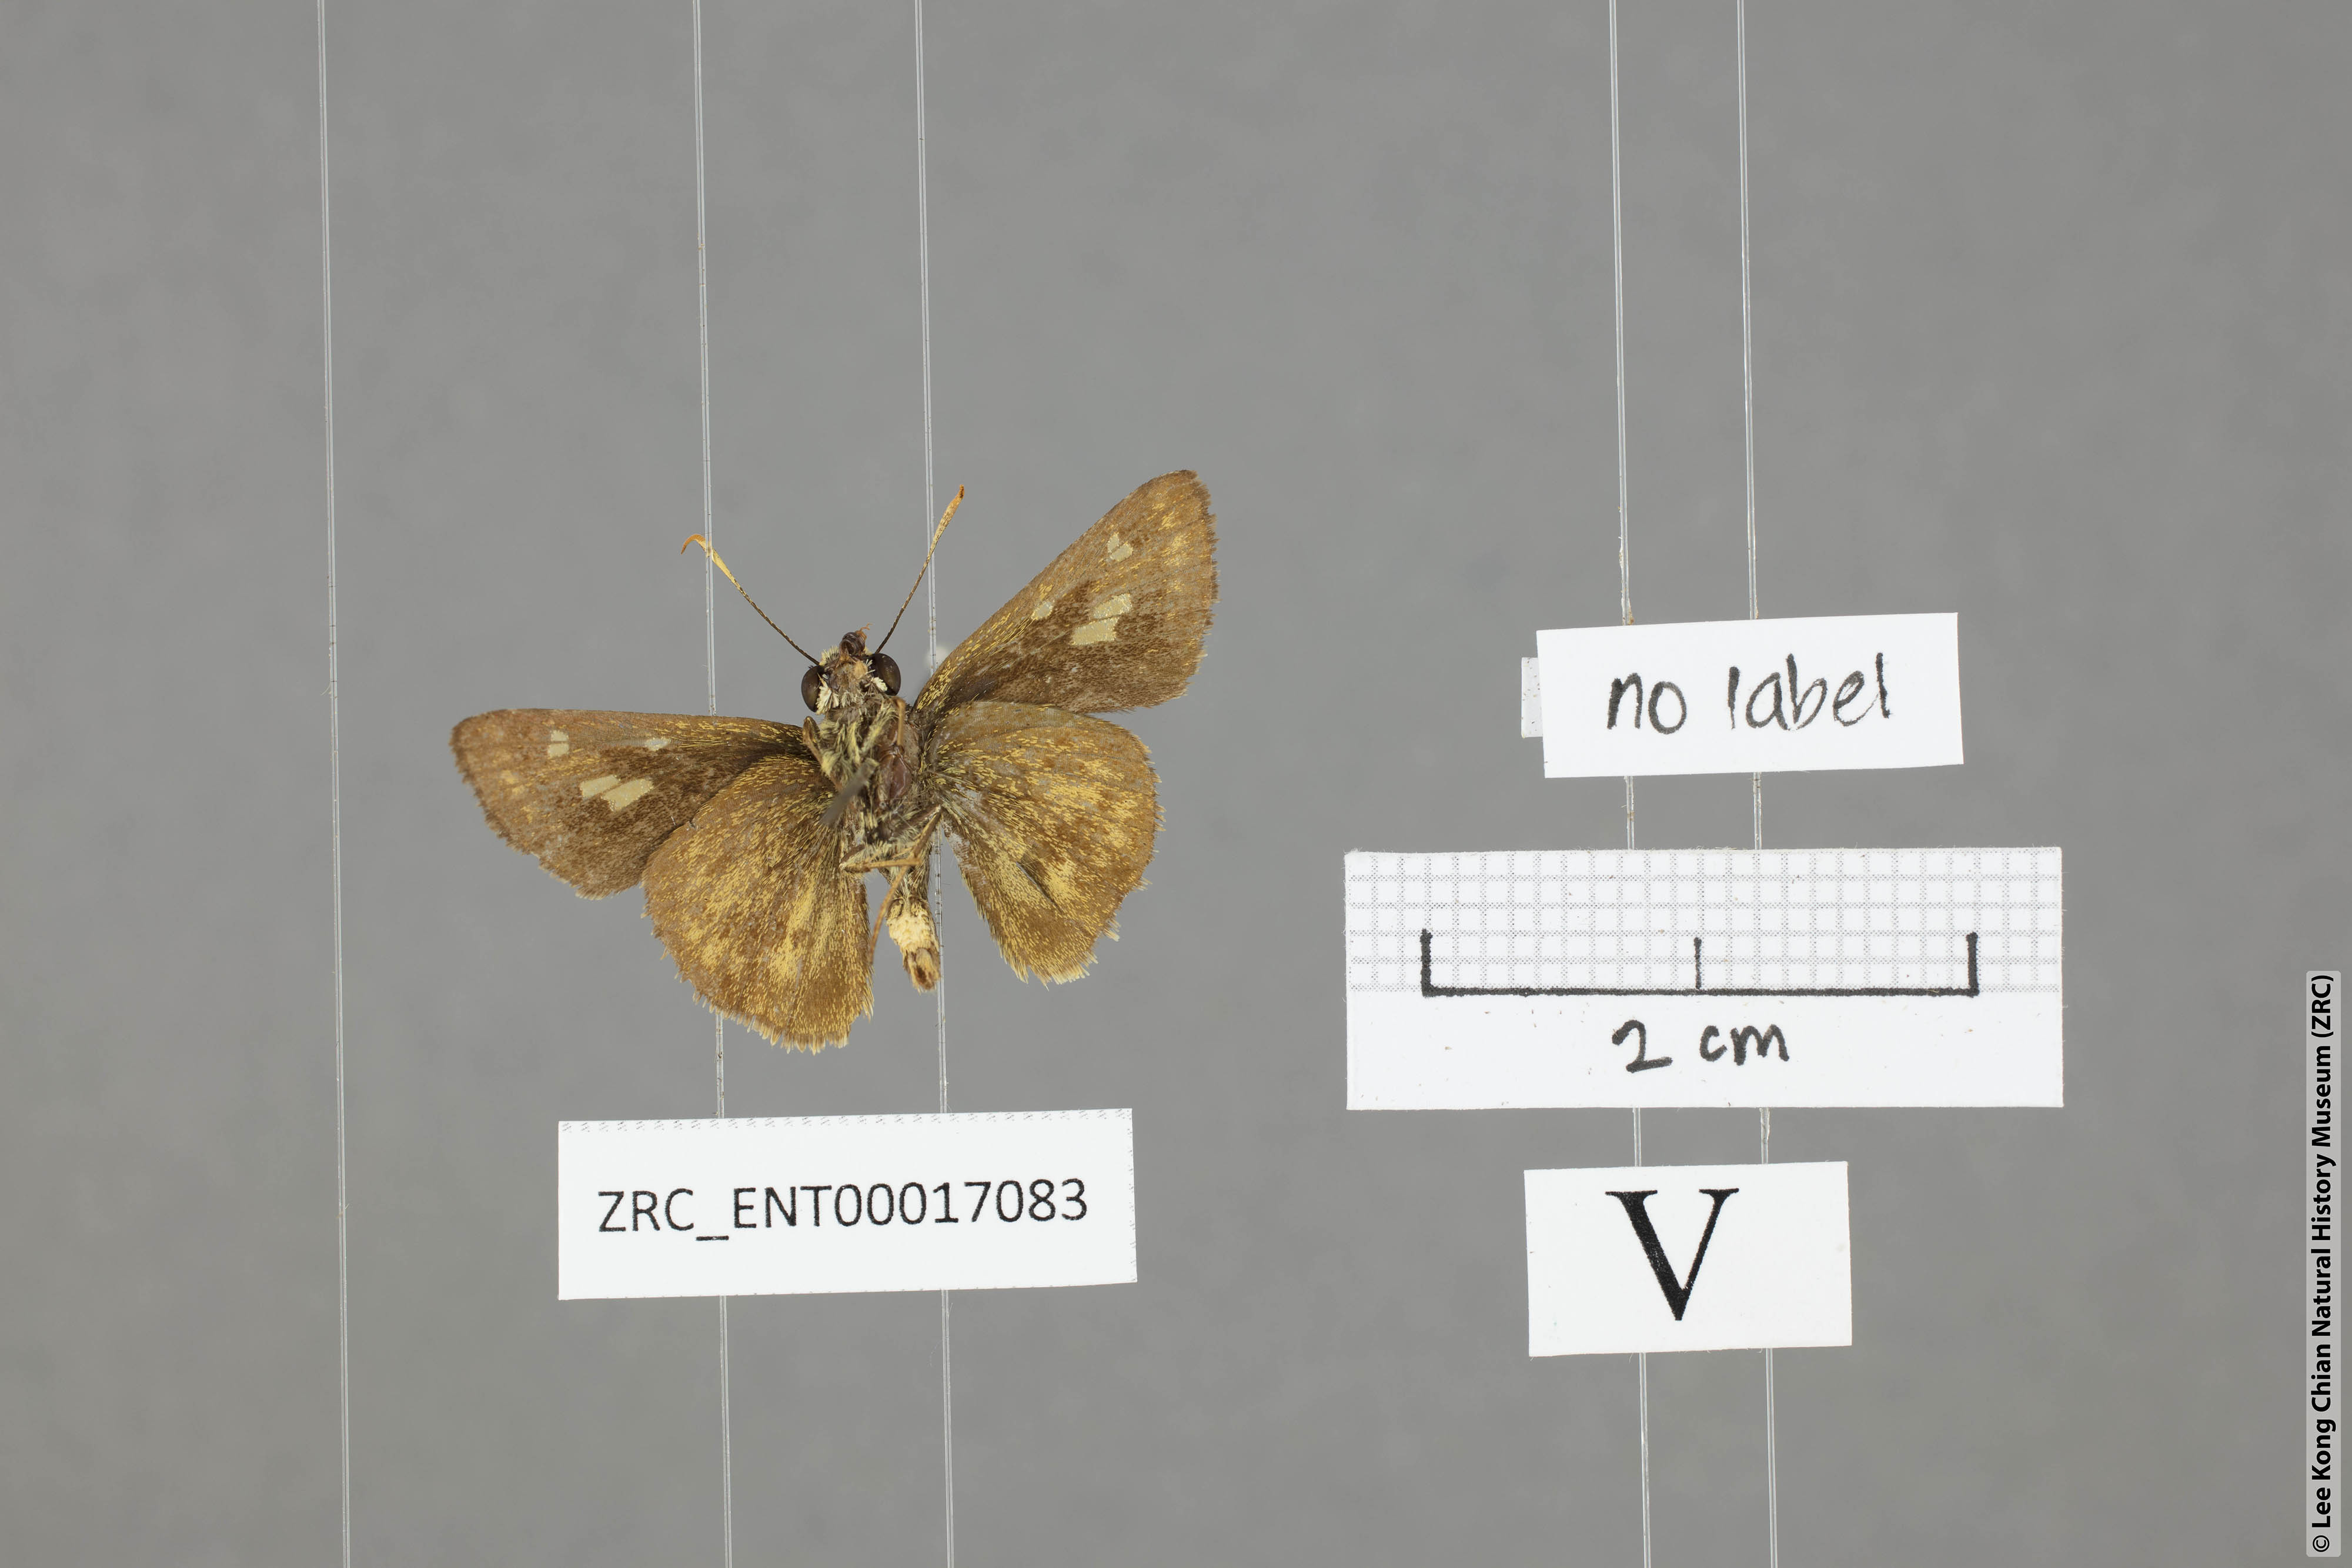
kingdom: Animalia
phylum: Arthropoda
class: Insecta
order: Lepidoptera
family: Hesperiidae
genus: Halpe
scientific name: Halpe veluvana
